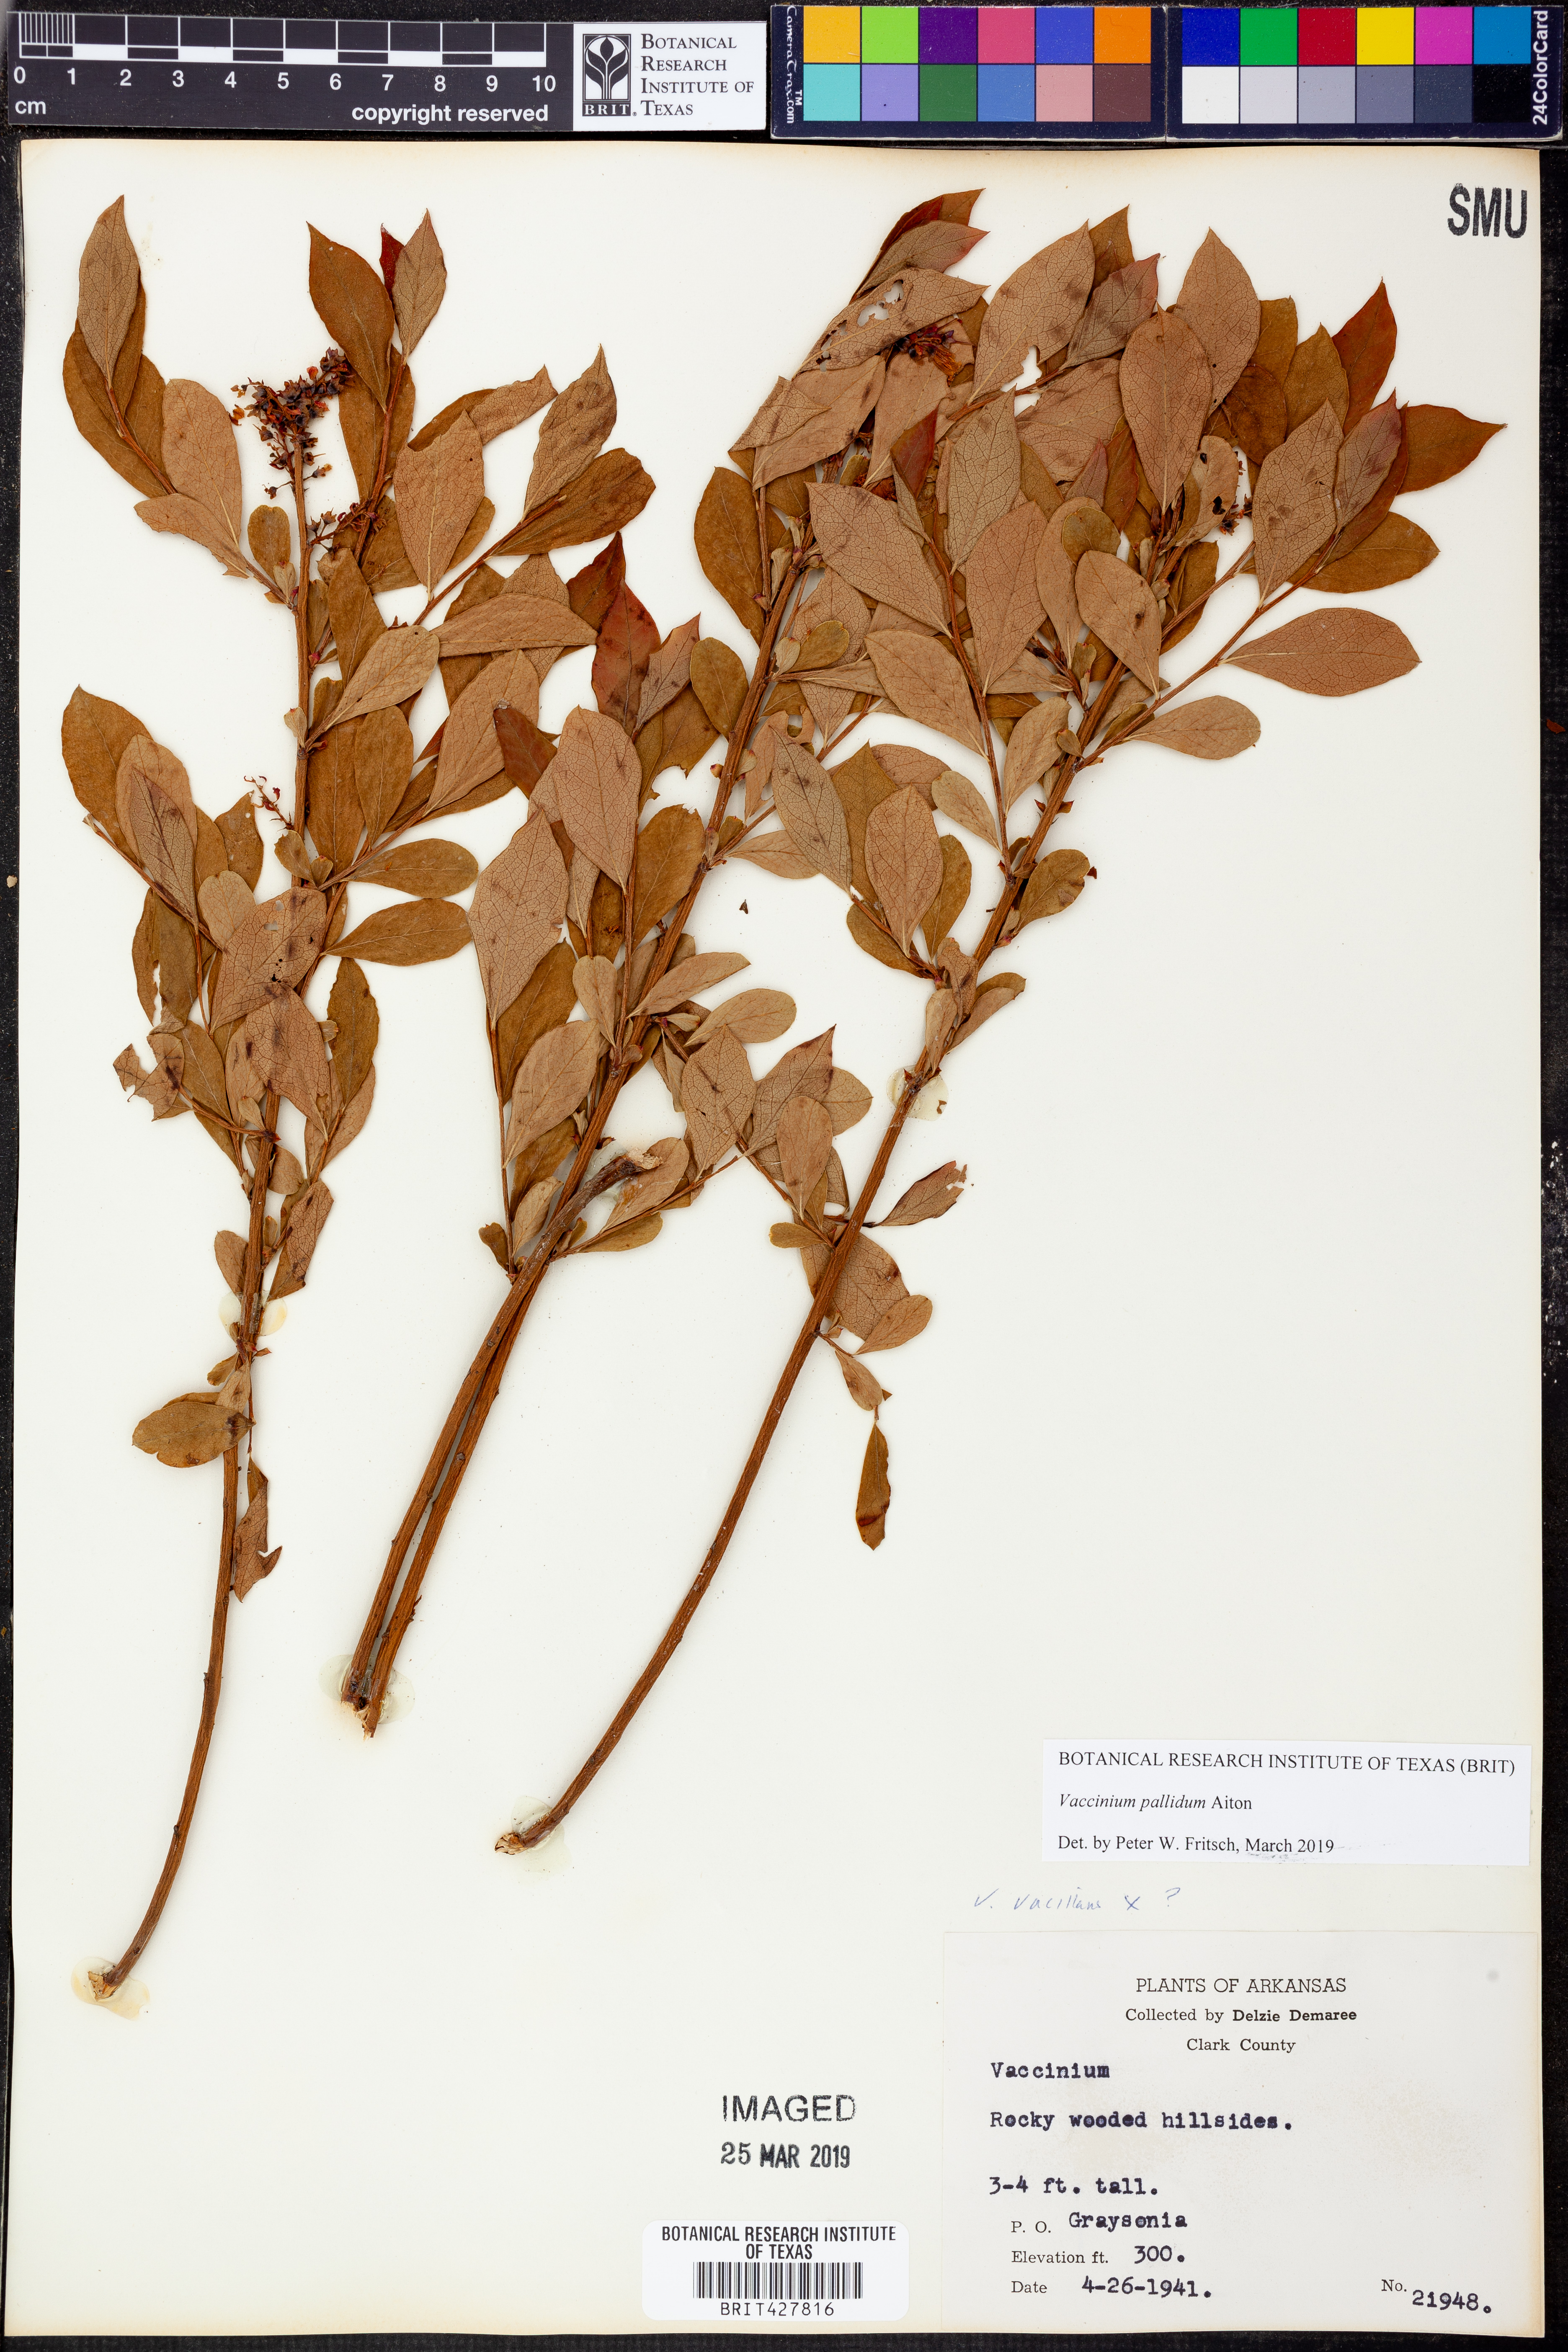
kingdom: Plantae
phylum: Tracheophyta
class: Magnoliopsida
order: Ericales
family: Ericaceae
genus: Vaccinium
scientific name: Vaccinium pallidum
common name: Blue ridge blueberry
